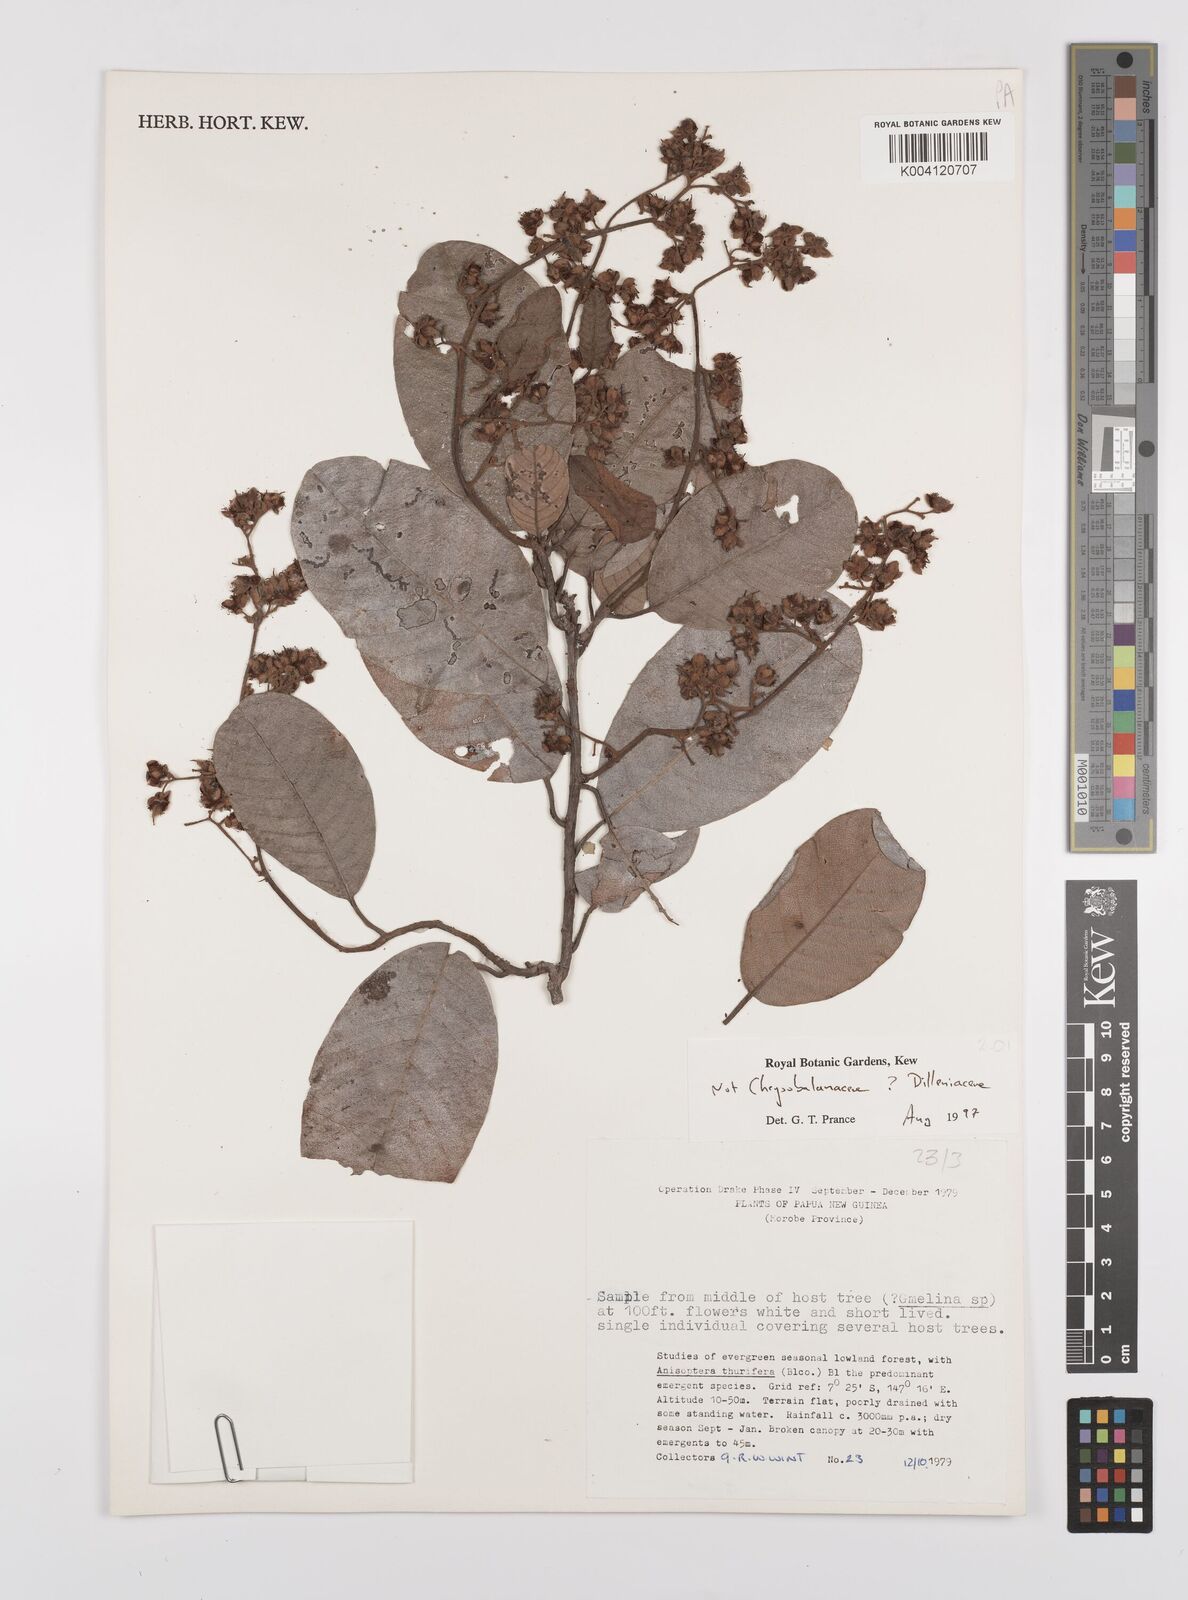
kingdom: Plantae
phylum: Tracheophyta
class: Magnoliopsida
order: Dilleniales
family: Dilleniaceae
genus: Tetracera
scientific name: Tetracera
